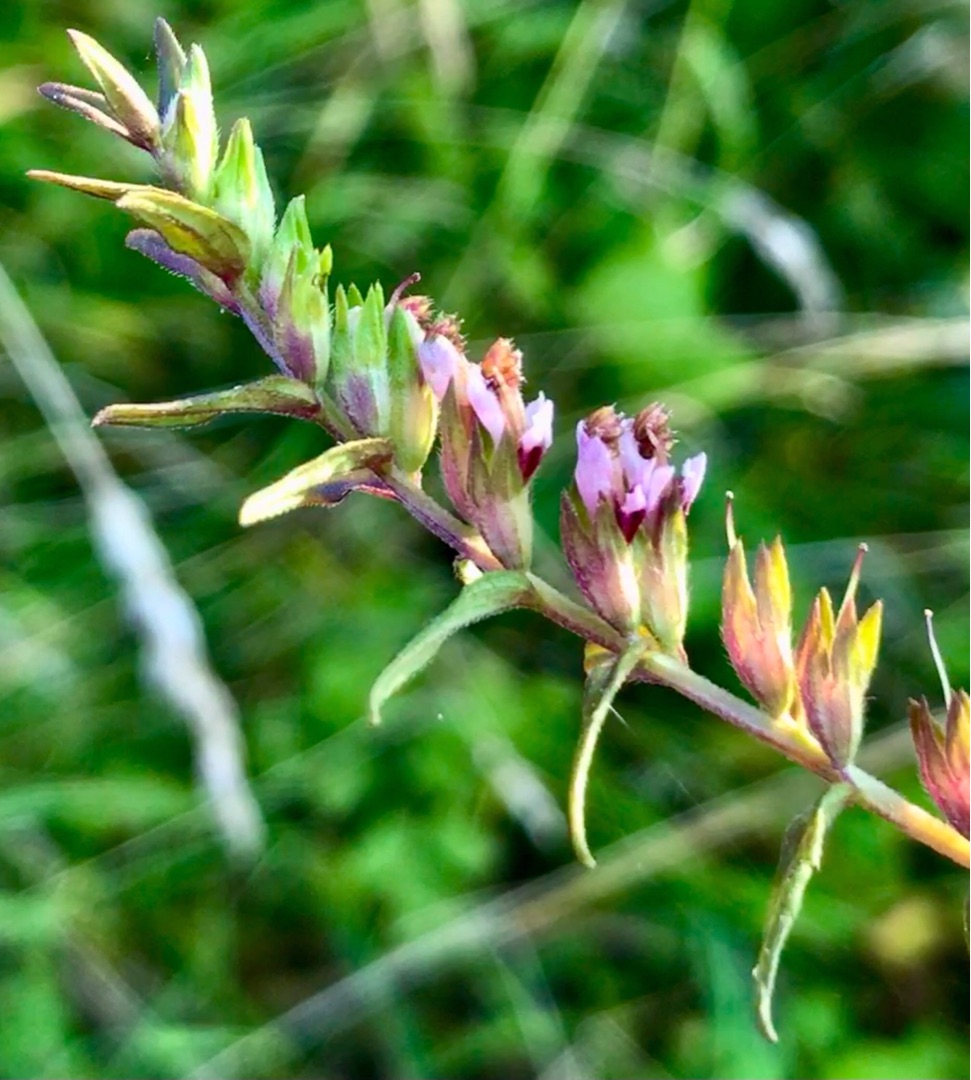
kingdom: Plantae
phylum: Tracheophyta
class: Magnoliopsida
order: Lamiales
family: Orobanchaceae
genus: Odontites
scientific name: Odontites vulgaris
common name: Høst-rødtop
